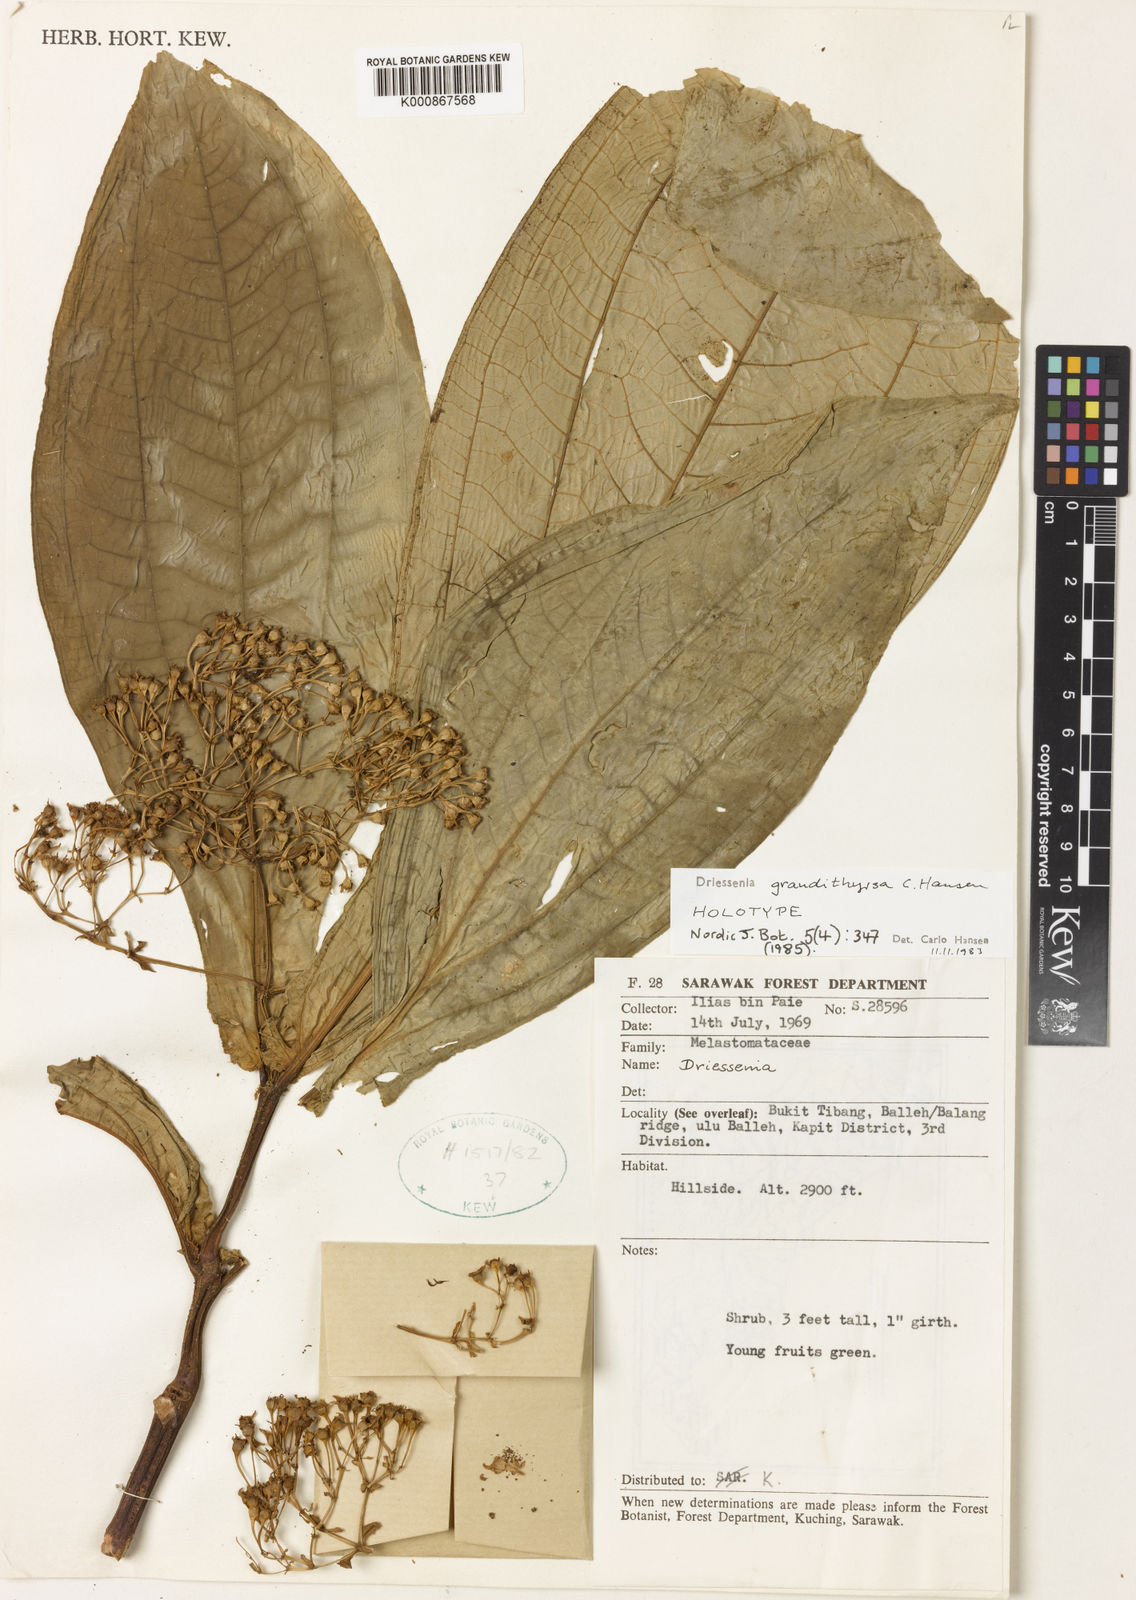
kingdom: Plantae
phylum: Tracheophyta
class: Magnoliopsida
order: Myrtales
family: Melastomataceae
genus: Driessenia
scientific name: Driessenia grandithyrsa
